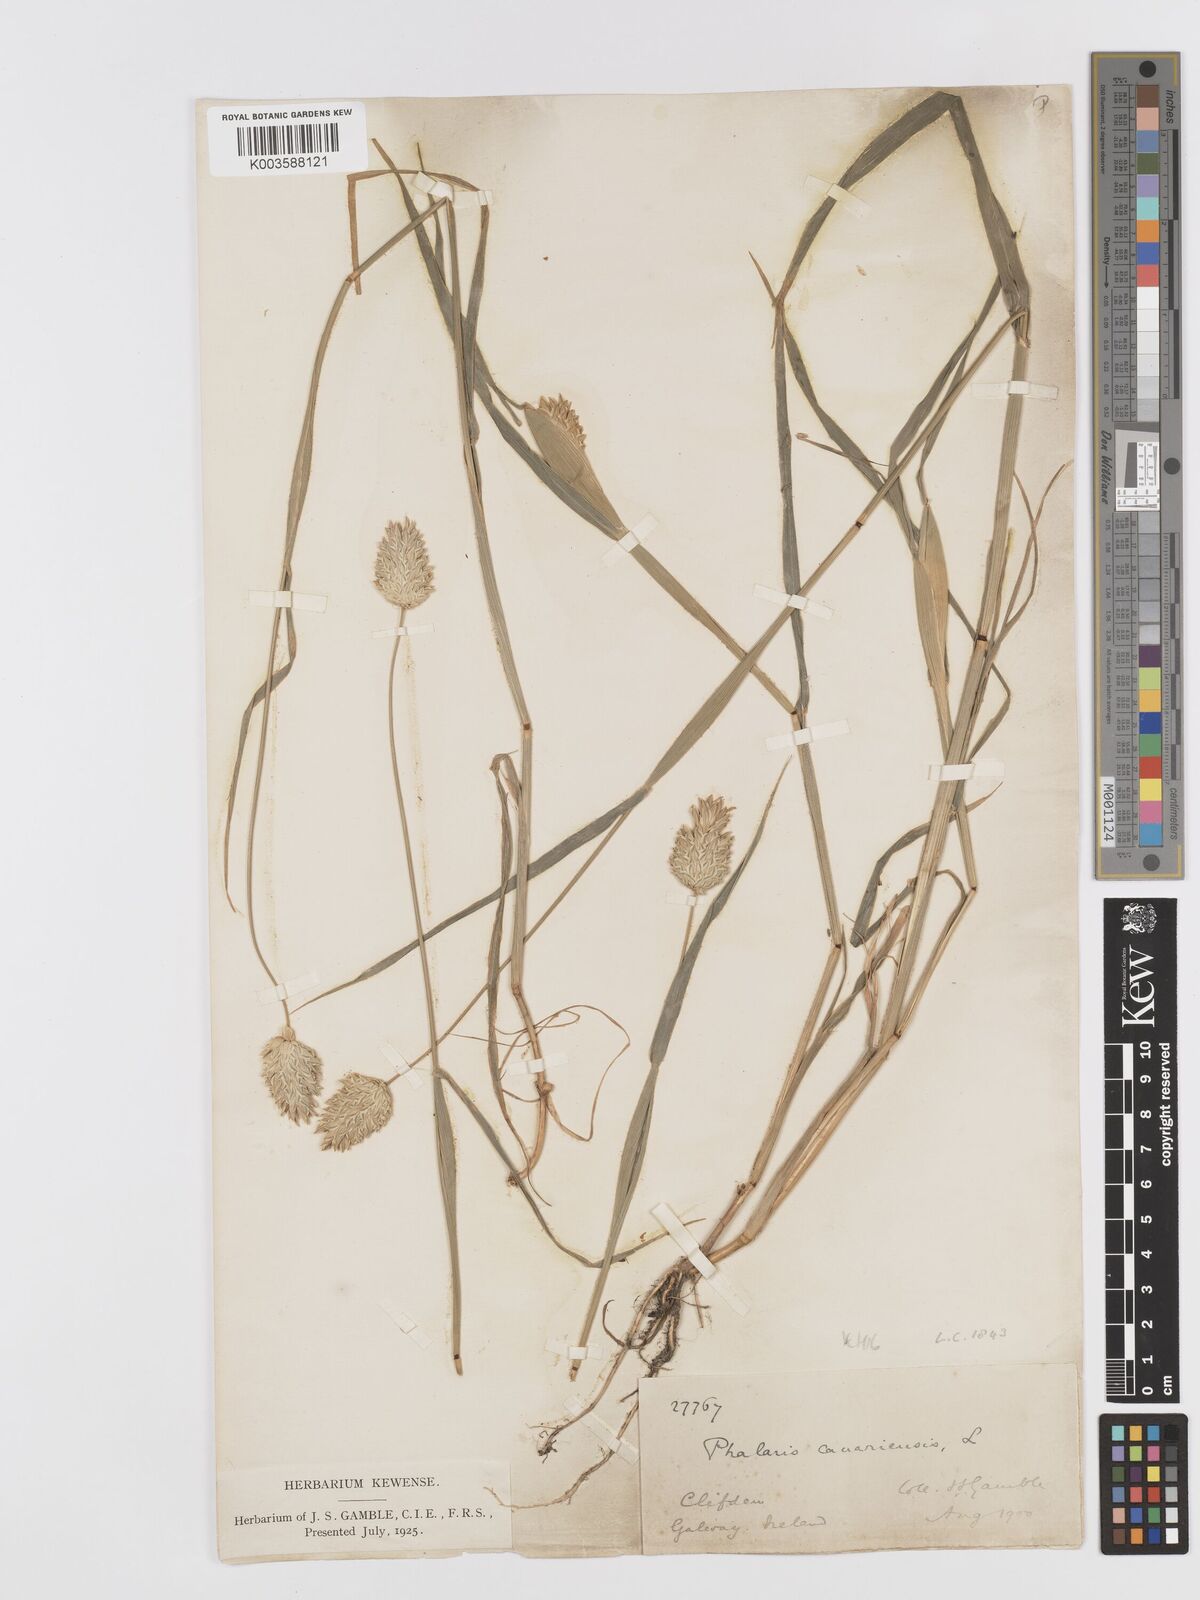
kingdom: Plantae
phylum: Tracheophyta
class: Liliopsida
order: Poales
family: Poaceae
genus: Phalaris
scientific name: Phalaris canariensis
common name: Annual canarygrass
